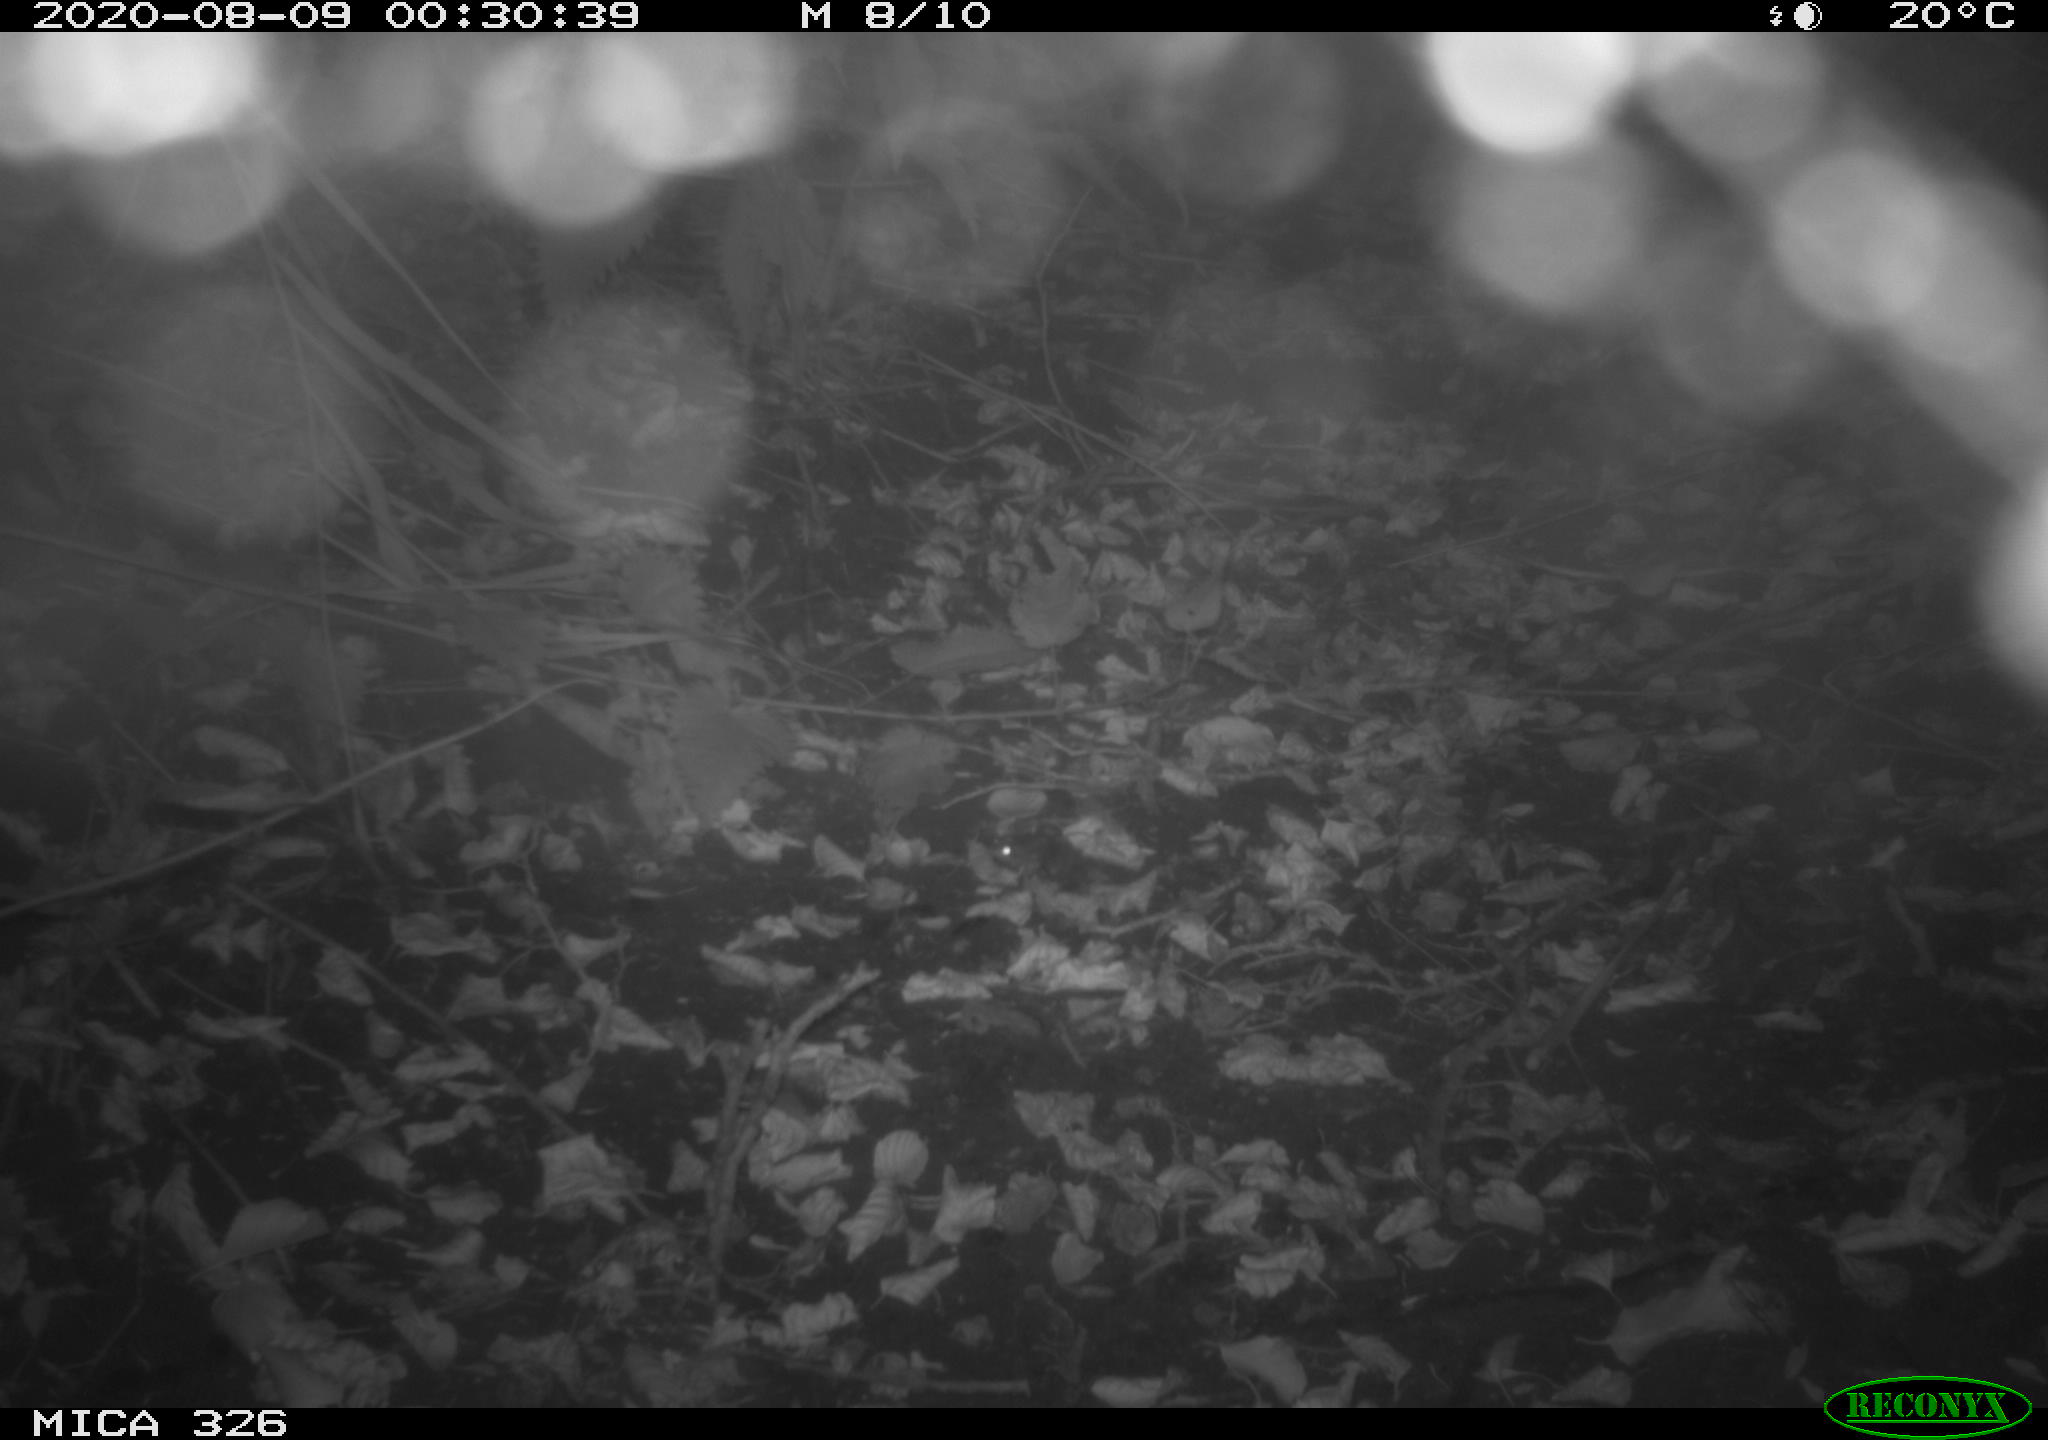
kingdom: Animalia
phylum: Chordata
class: Mammalia
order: Rodentia
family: Muridae
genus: Rattus
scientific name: Rattus norvegicus
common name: Brown rat
